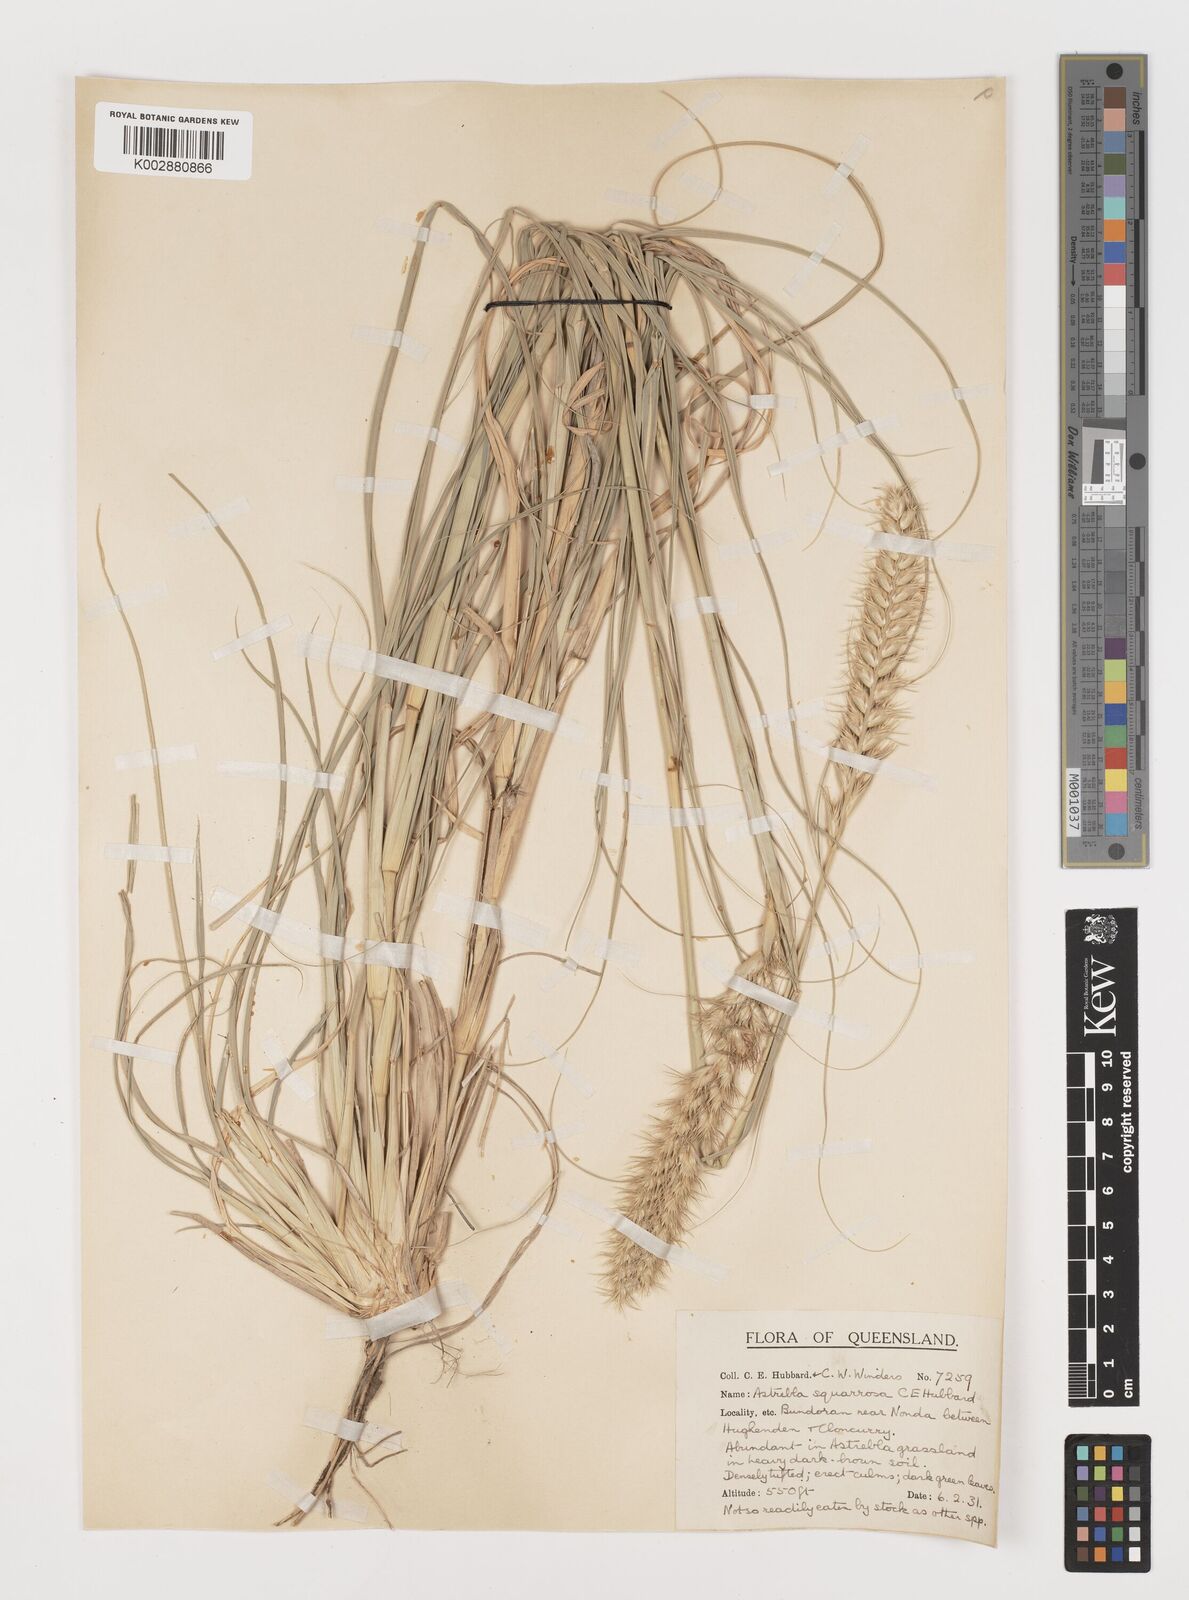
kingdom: Plantae
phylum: Tracheophyta
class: Liliopsida
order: Poales
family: Poaceae
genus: Astrebla
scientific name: Astrebla squarrosa
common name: Wheat-ear mitchell grass
